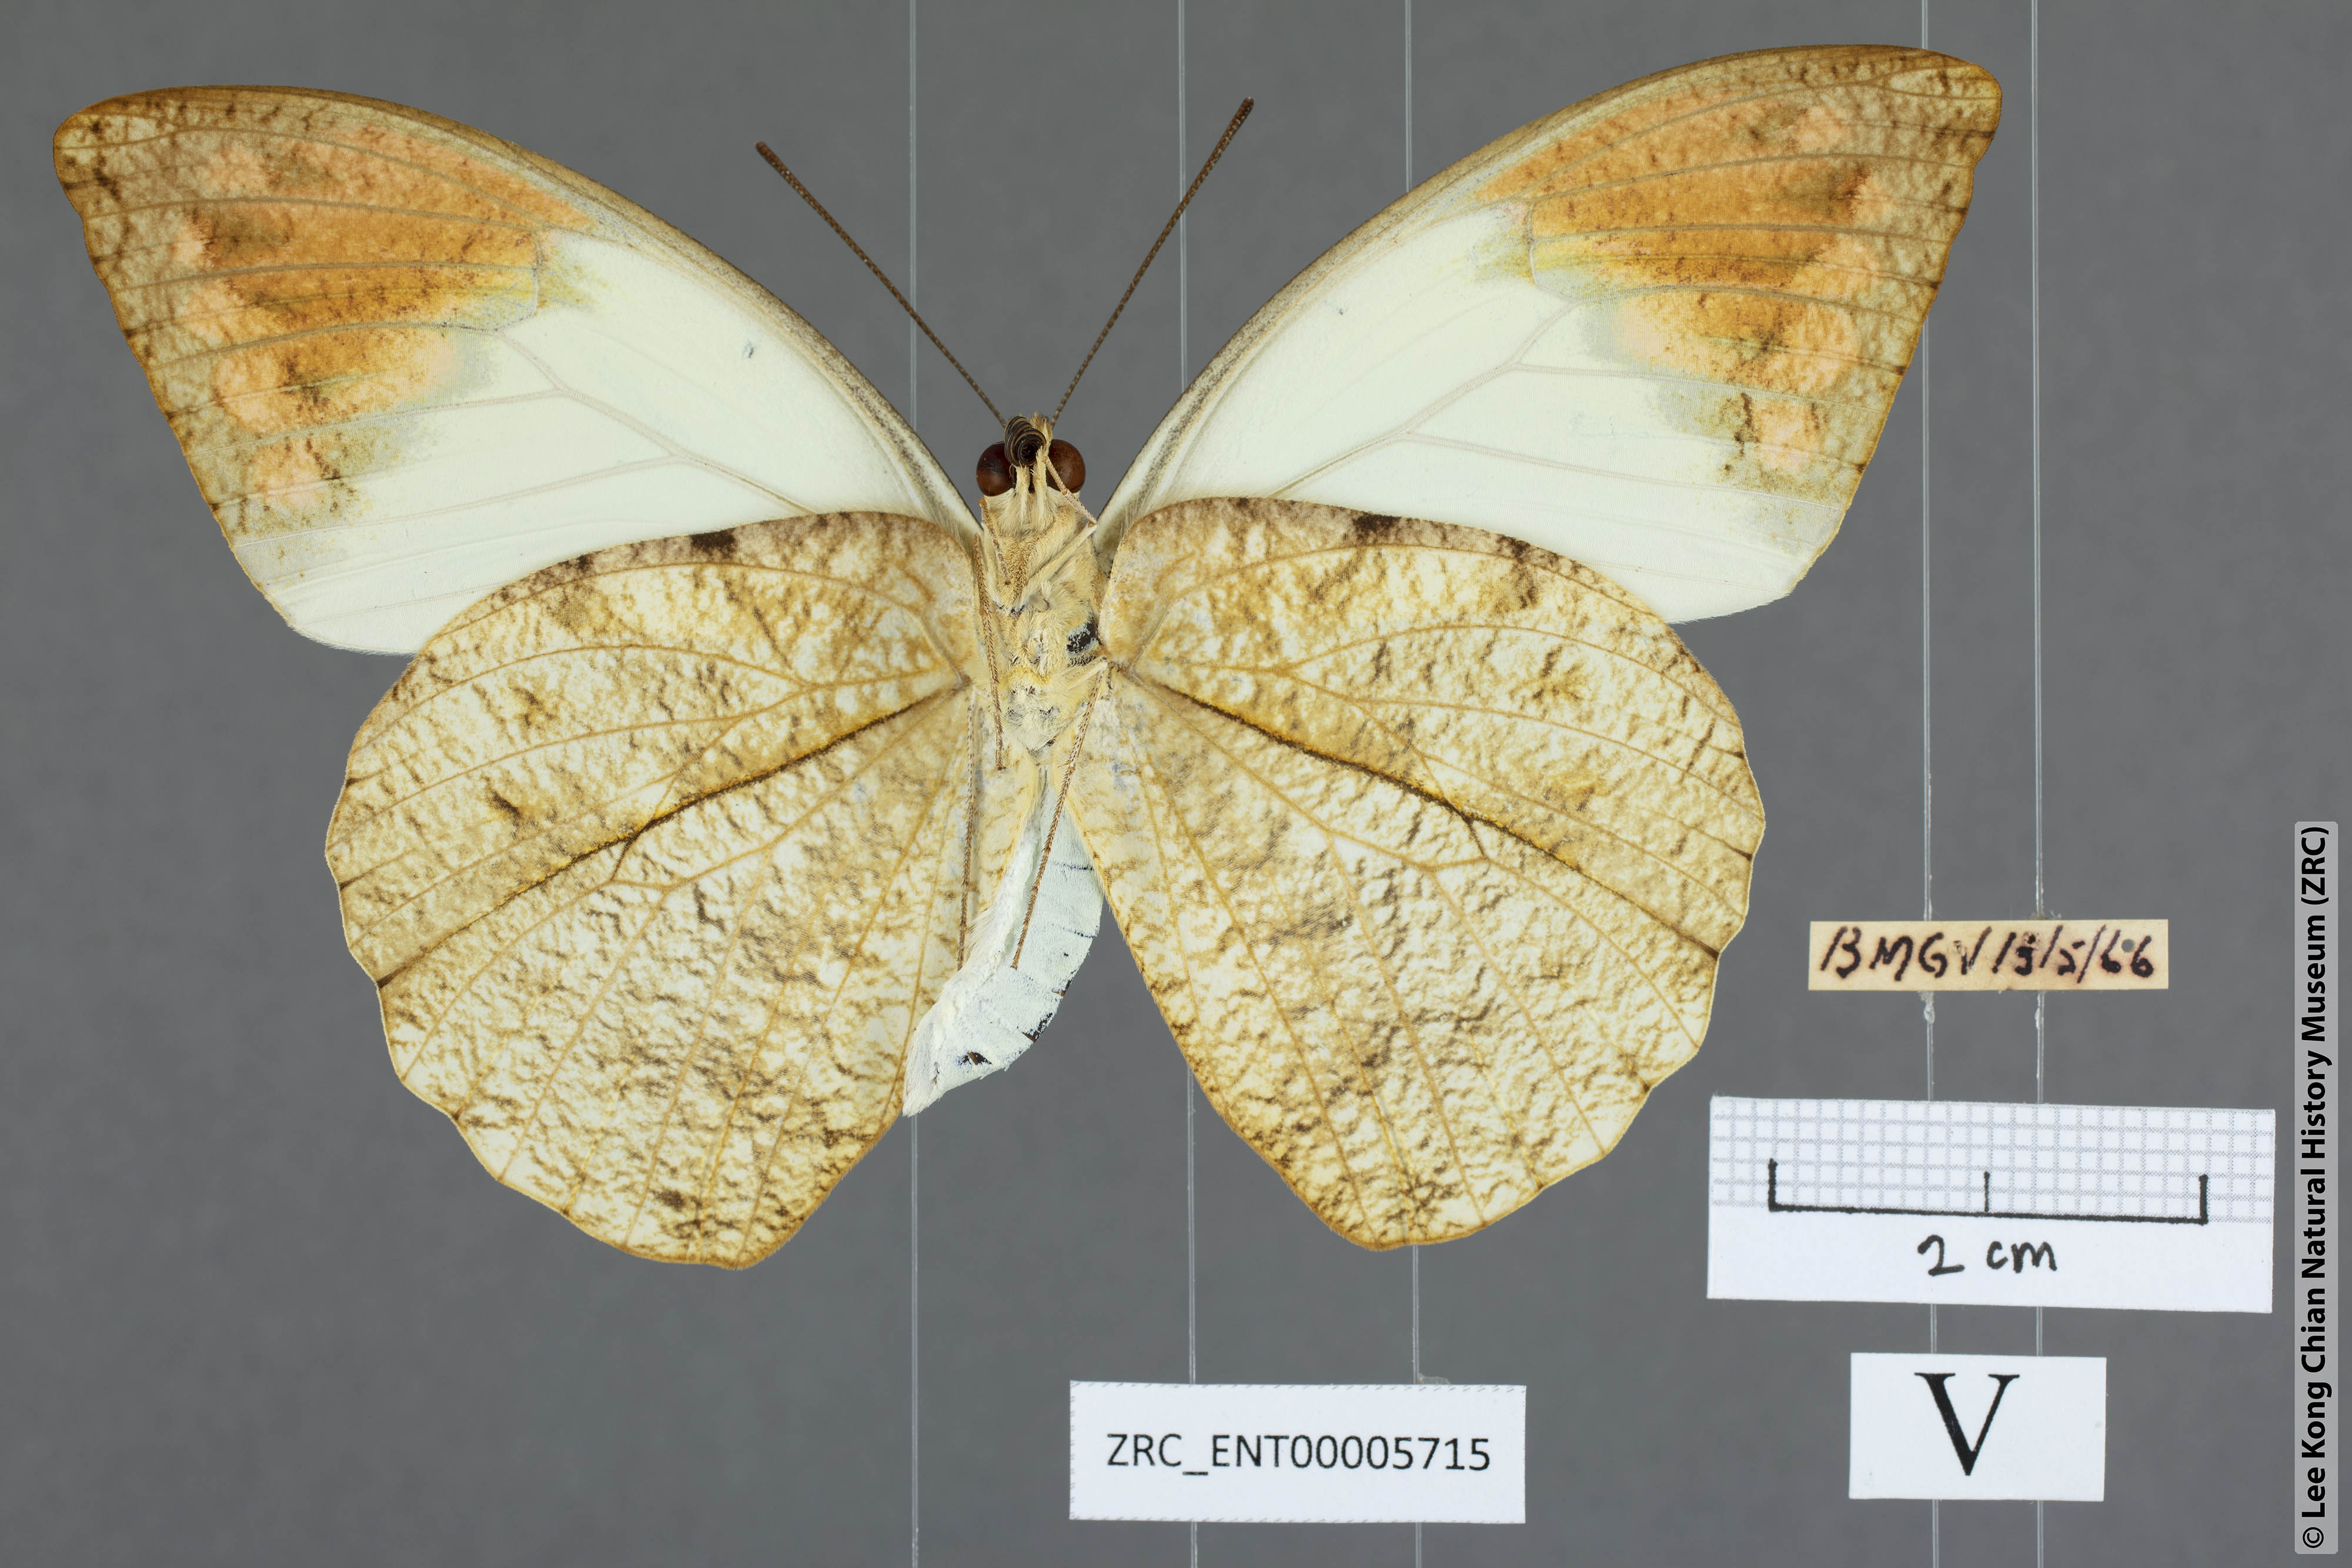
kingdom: Animalia
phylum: Arthropoda
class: Insecta
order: Lepidoptera
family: Pieridae
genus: Hebomoia
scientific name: Hebomoia glaucippe
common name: Great orange tip
